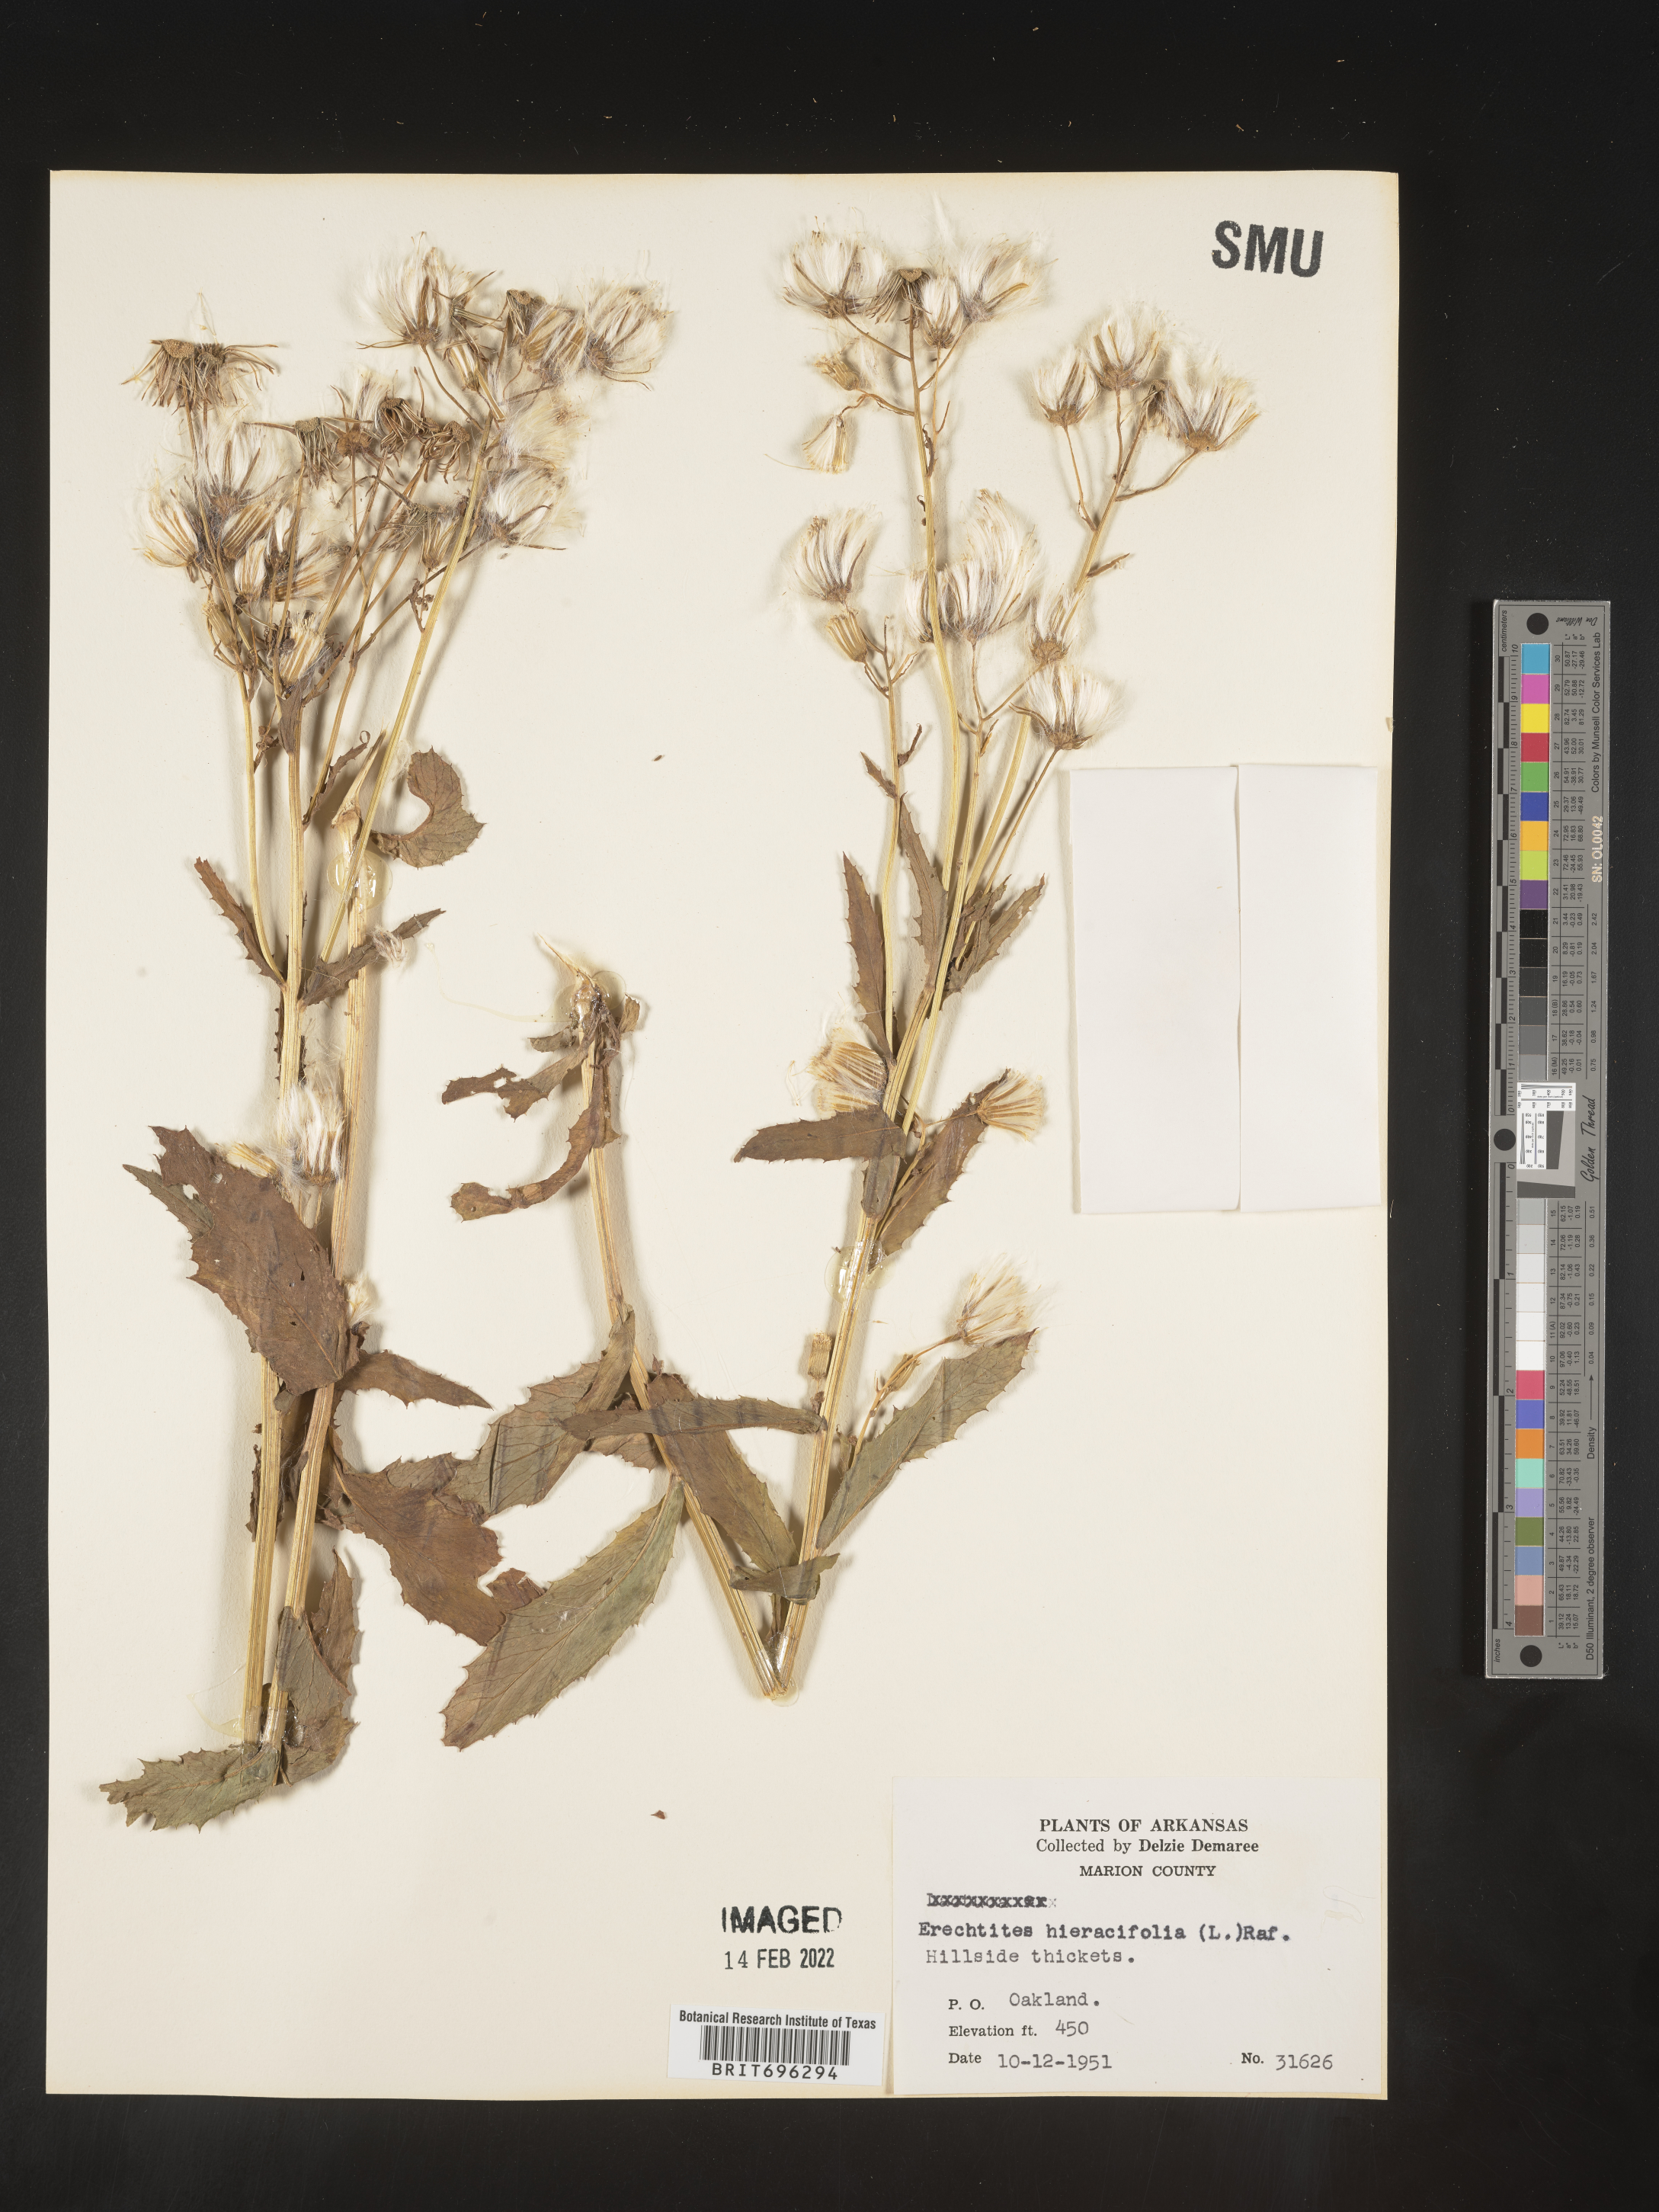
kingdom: Plantae
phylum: Tracheophyta
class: Magnoliopsida
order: Asterales
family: Asteraceae
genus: Erechtites
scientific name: Erechtites hieraciifolius
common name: American burnweed
